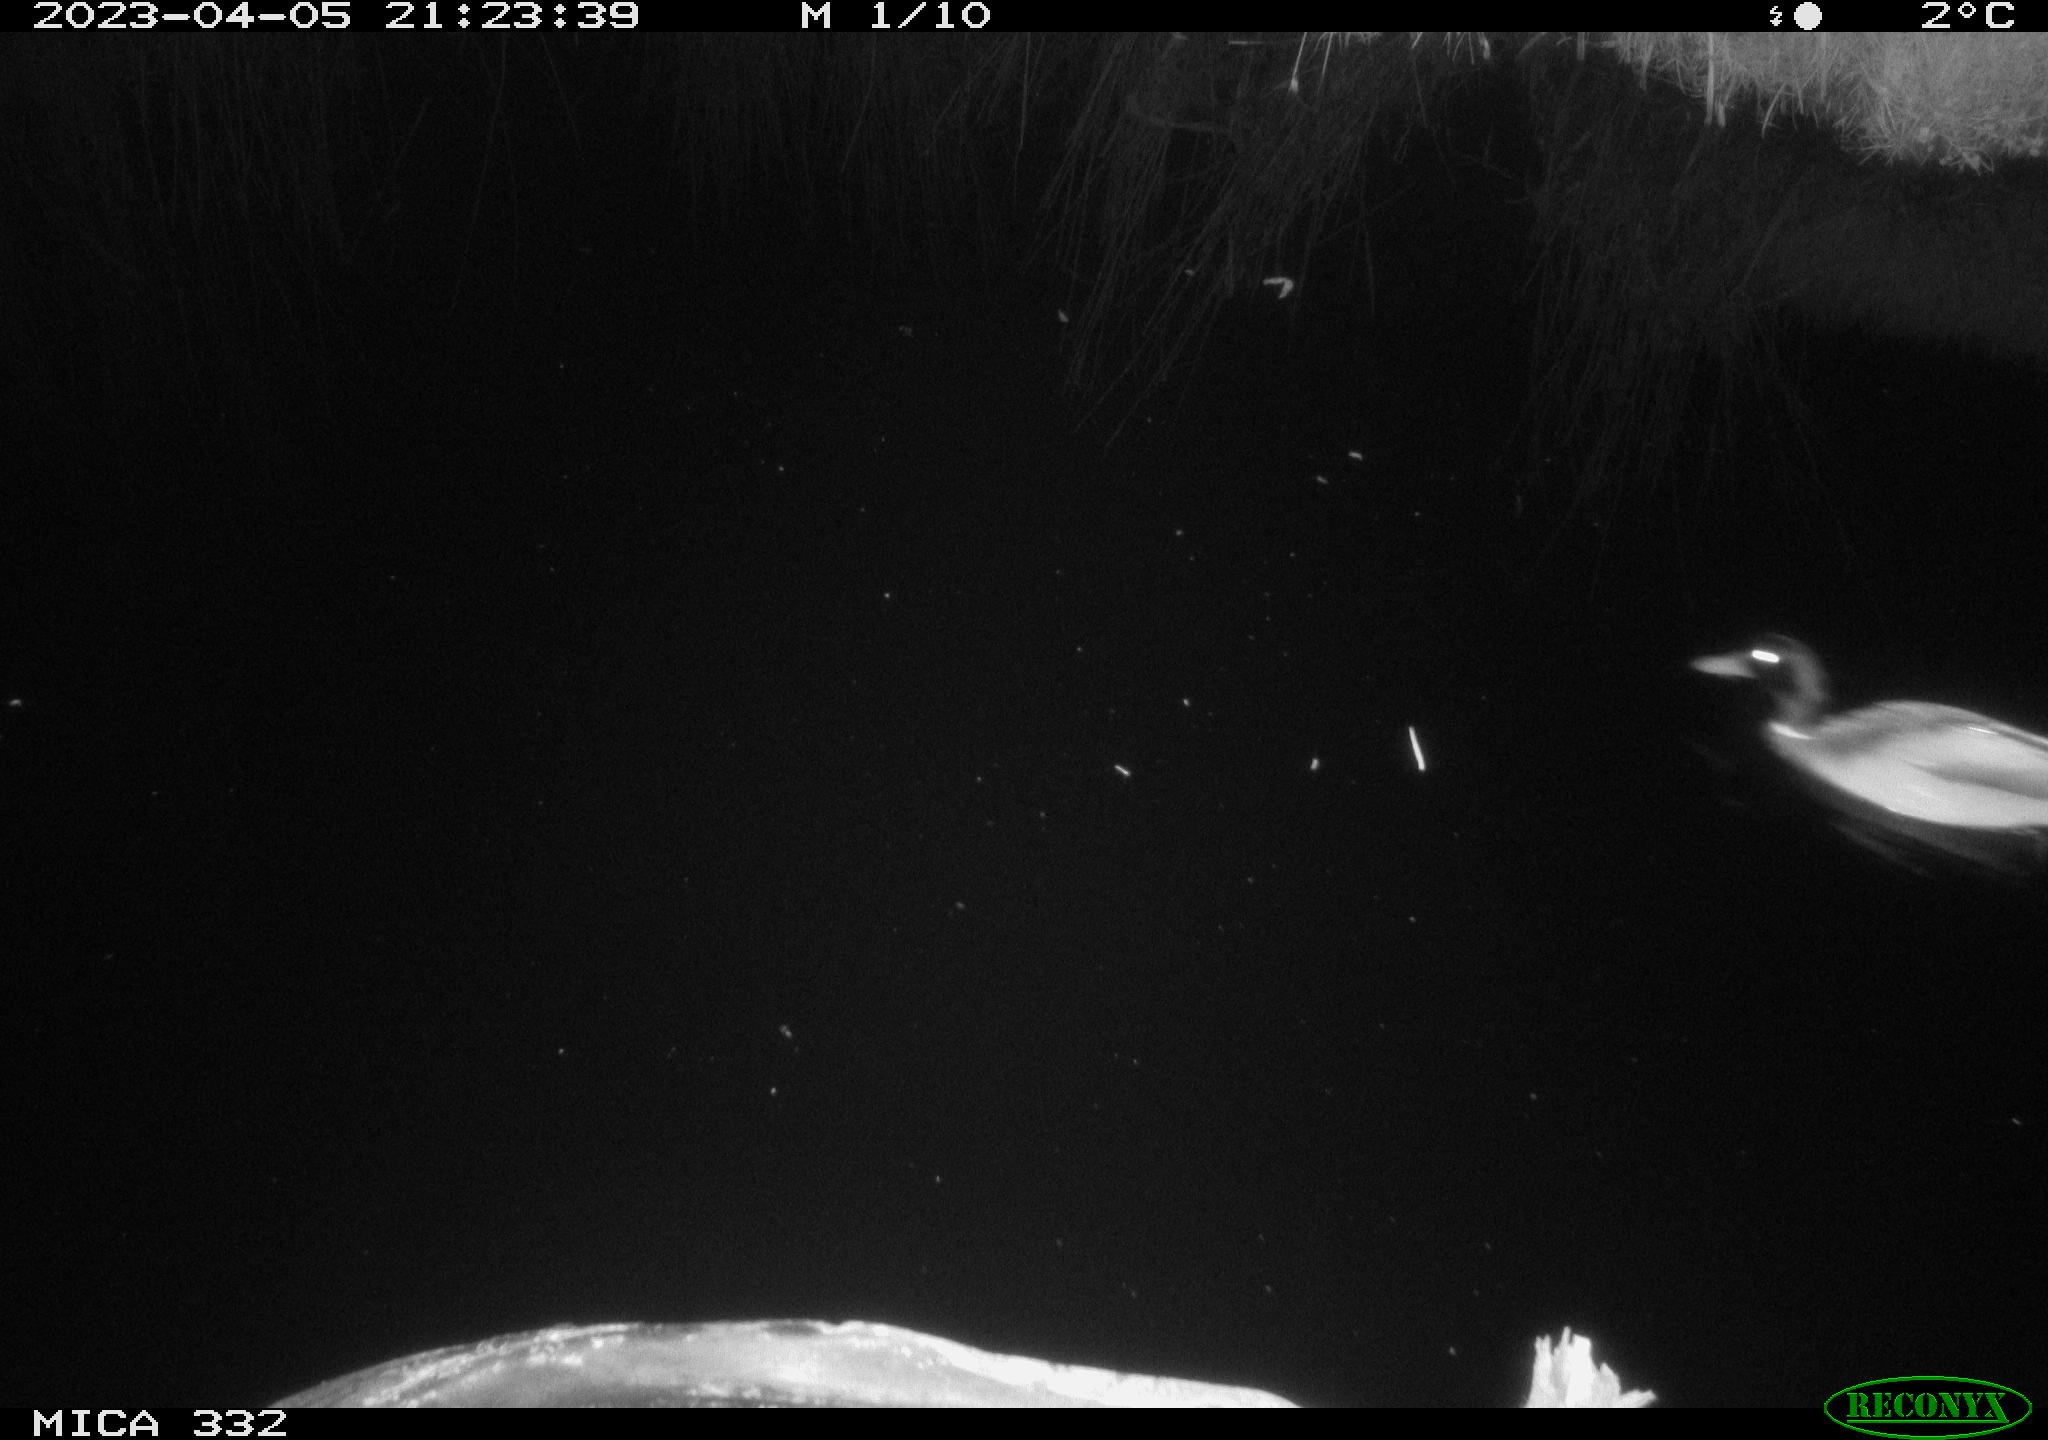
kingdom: Animalia
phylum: Chordata
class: Aves
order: Anseriformes
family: Anatidae
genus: Anas
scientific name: Anas platyrhynchos
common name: Mallard
